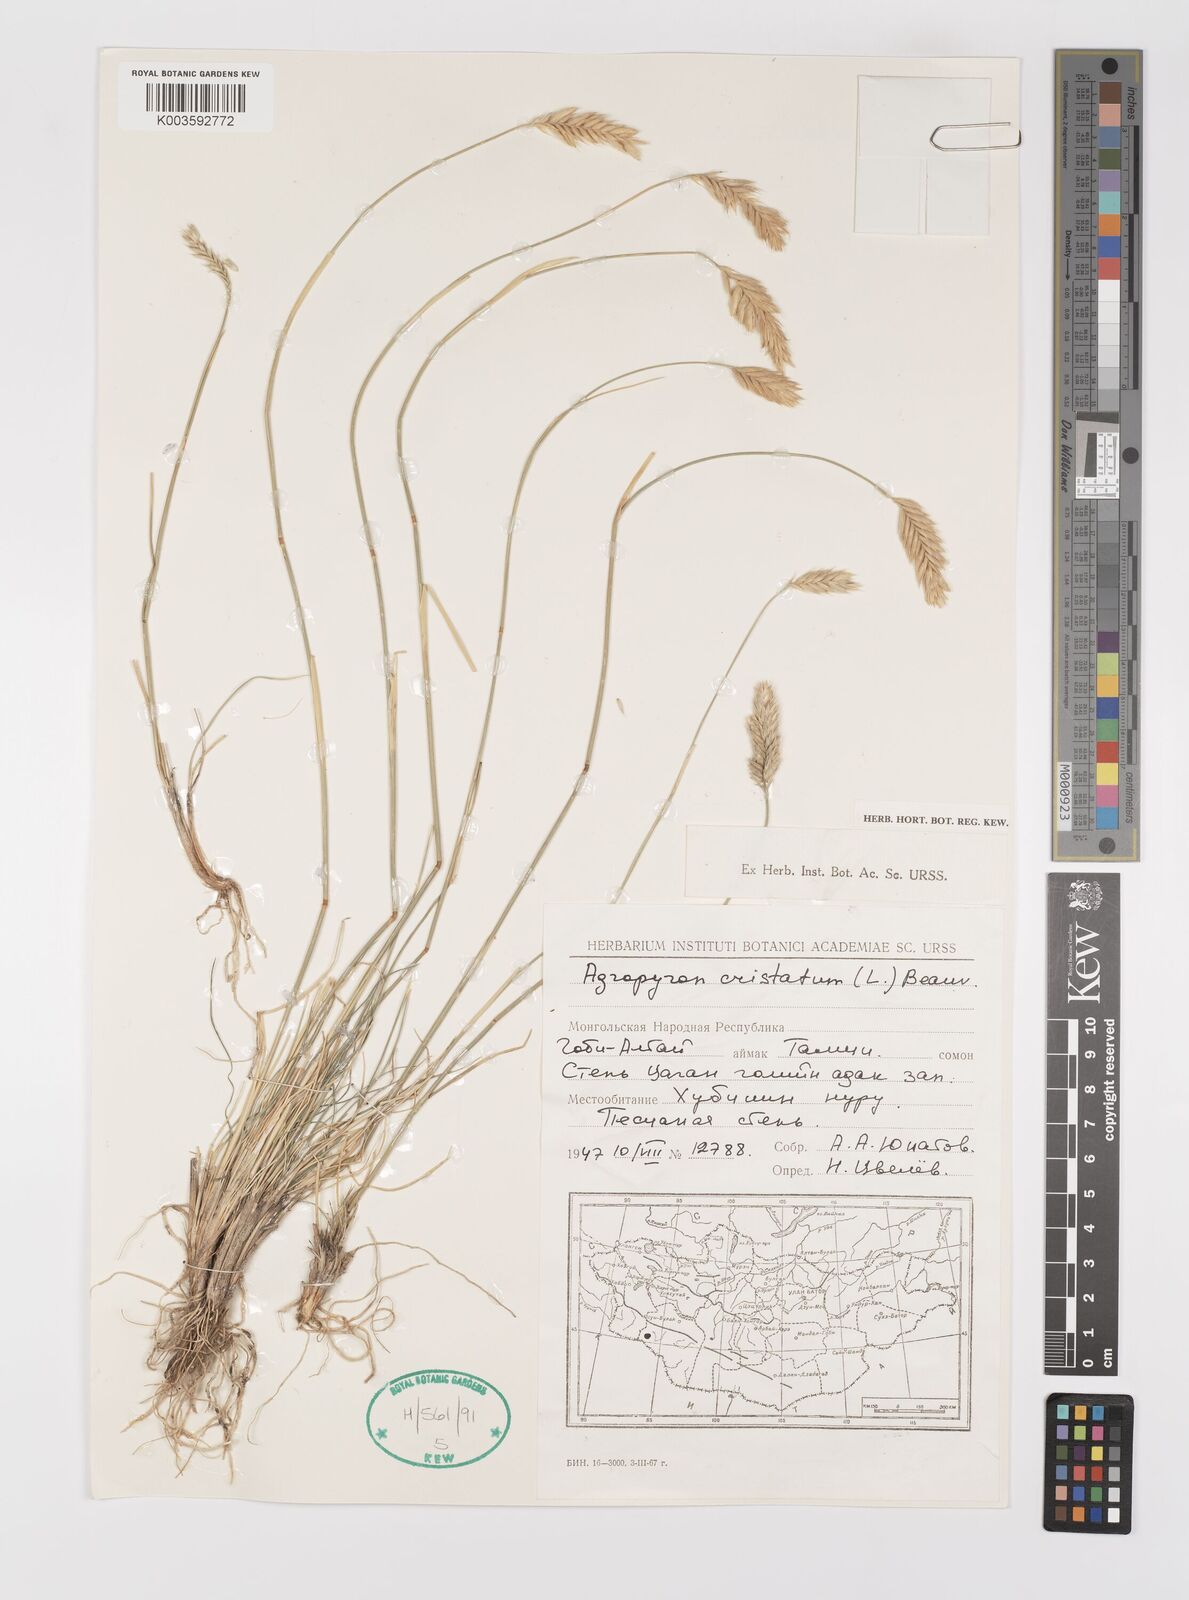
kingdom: Plantae
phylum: Tracheophyta
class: Liliopsida
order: Poales
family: Poaceae
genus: Agropyron
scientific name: Agropyron cristatum
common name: Crested wheatgrass
